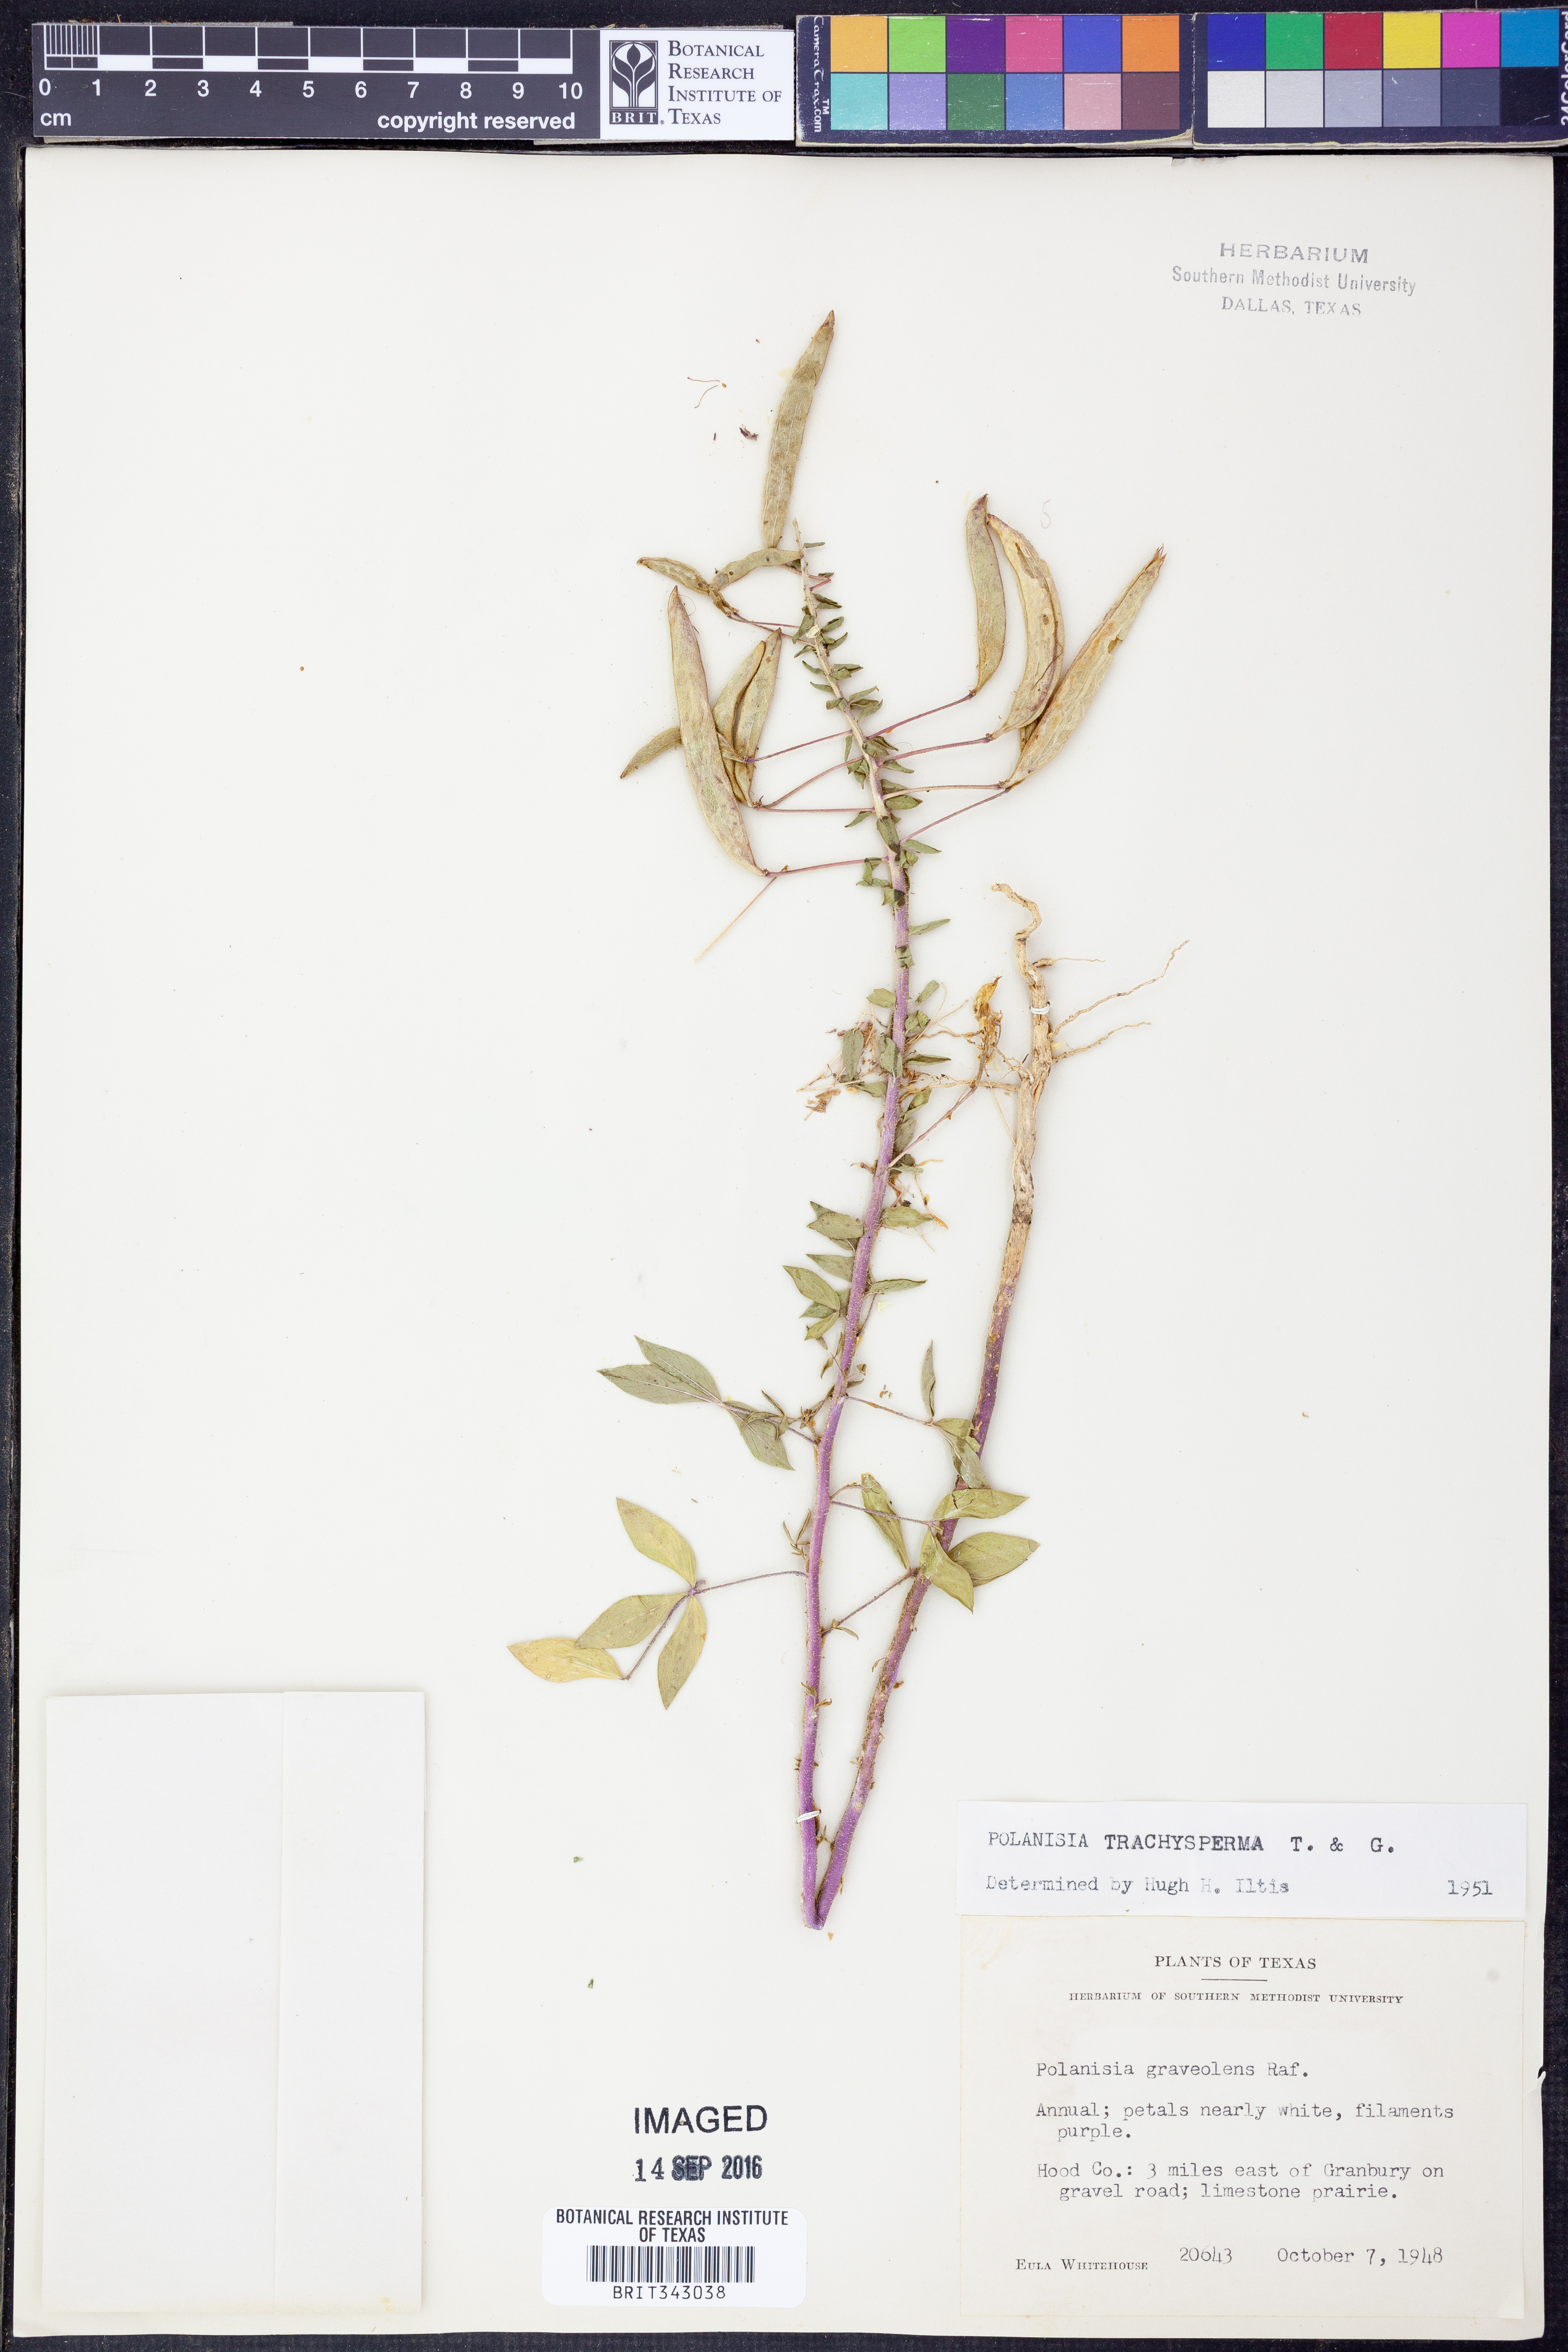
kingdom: Plantae
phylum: Tracheophyta
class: Magnoliopsida
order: Brassicales
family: Cleomaceae
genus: Polanisia
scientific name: Polanisia trachysperma
